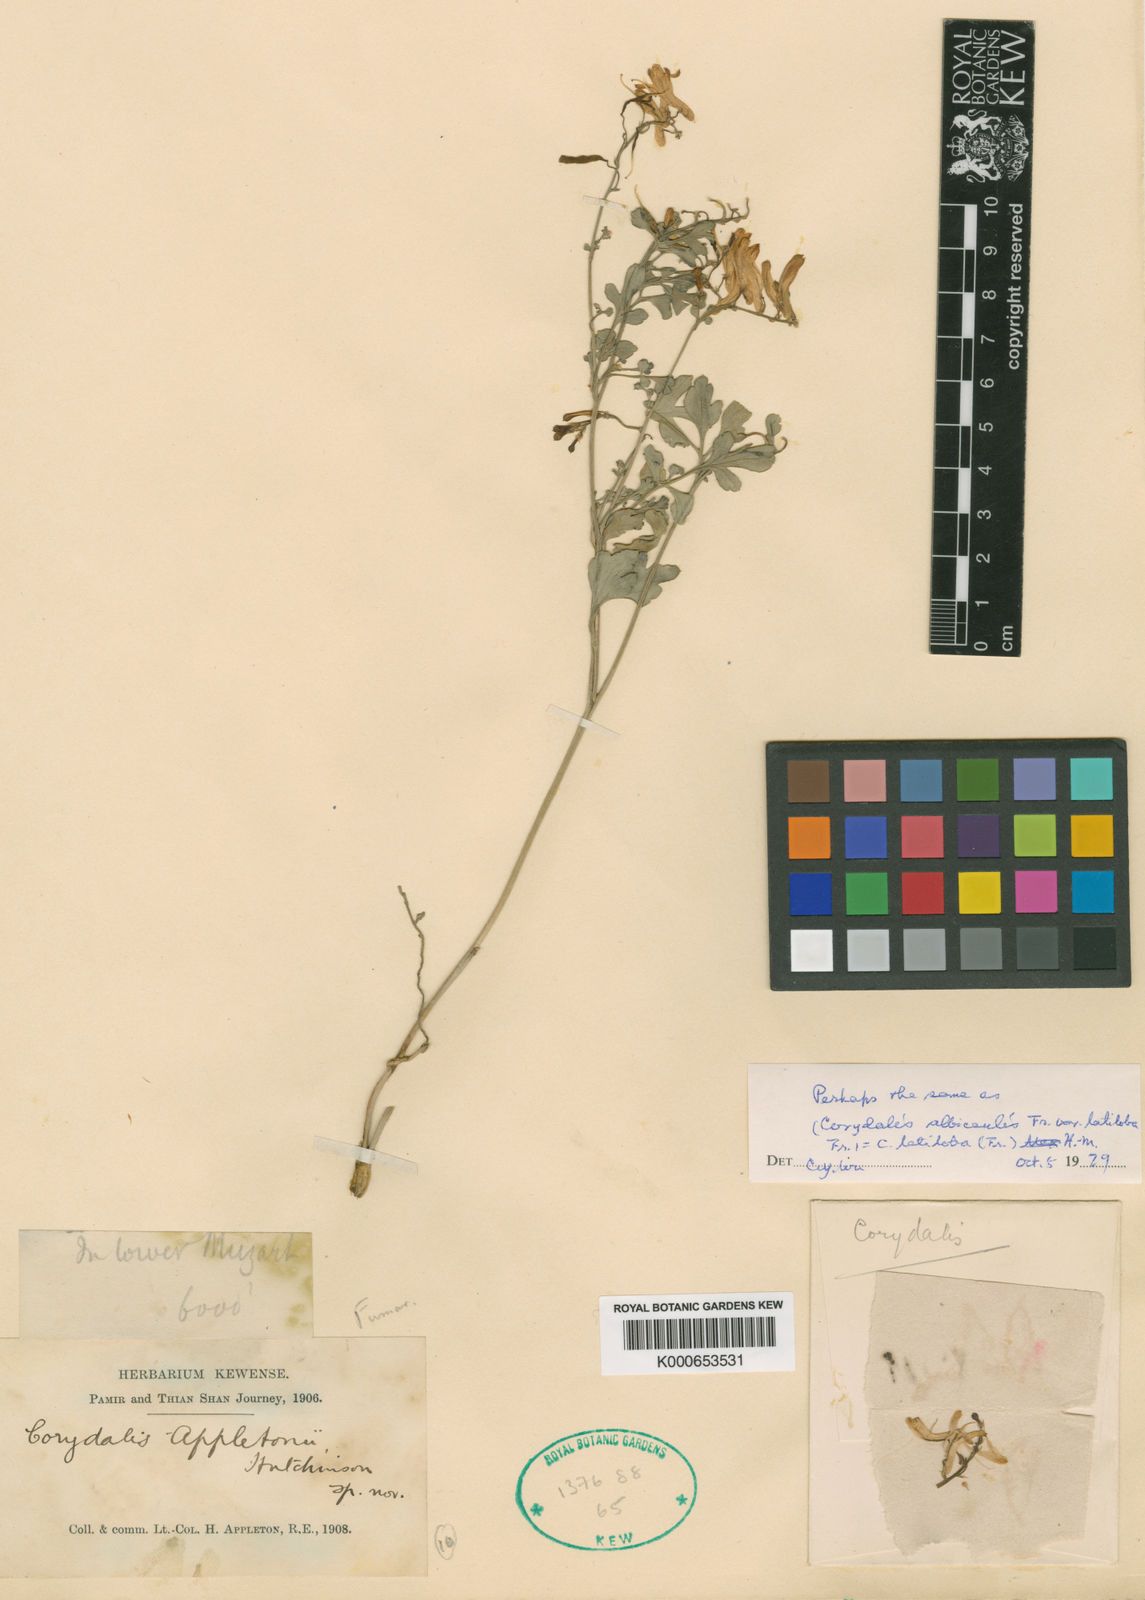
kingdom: Plantae
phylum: Tracheophyta
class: Magnoliopsida
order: Ranunculales
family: Papaveraceae
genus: Corydalis
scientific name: Corydalis
